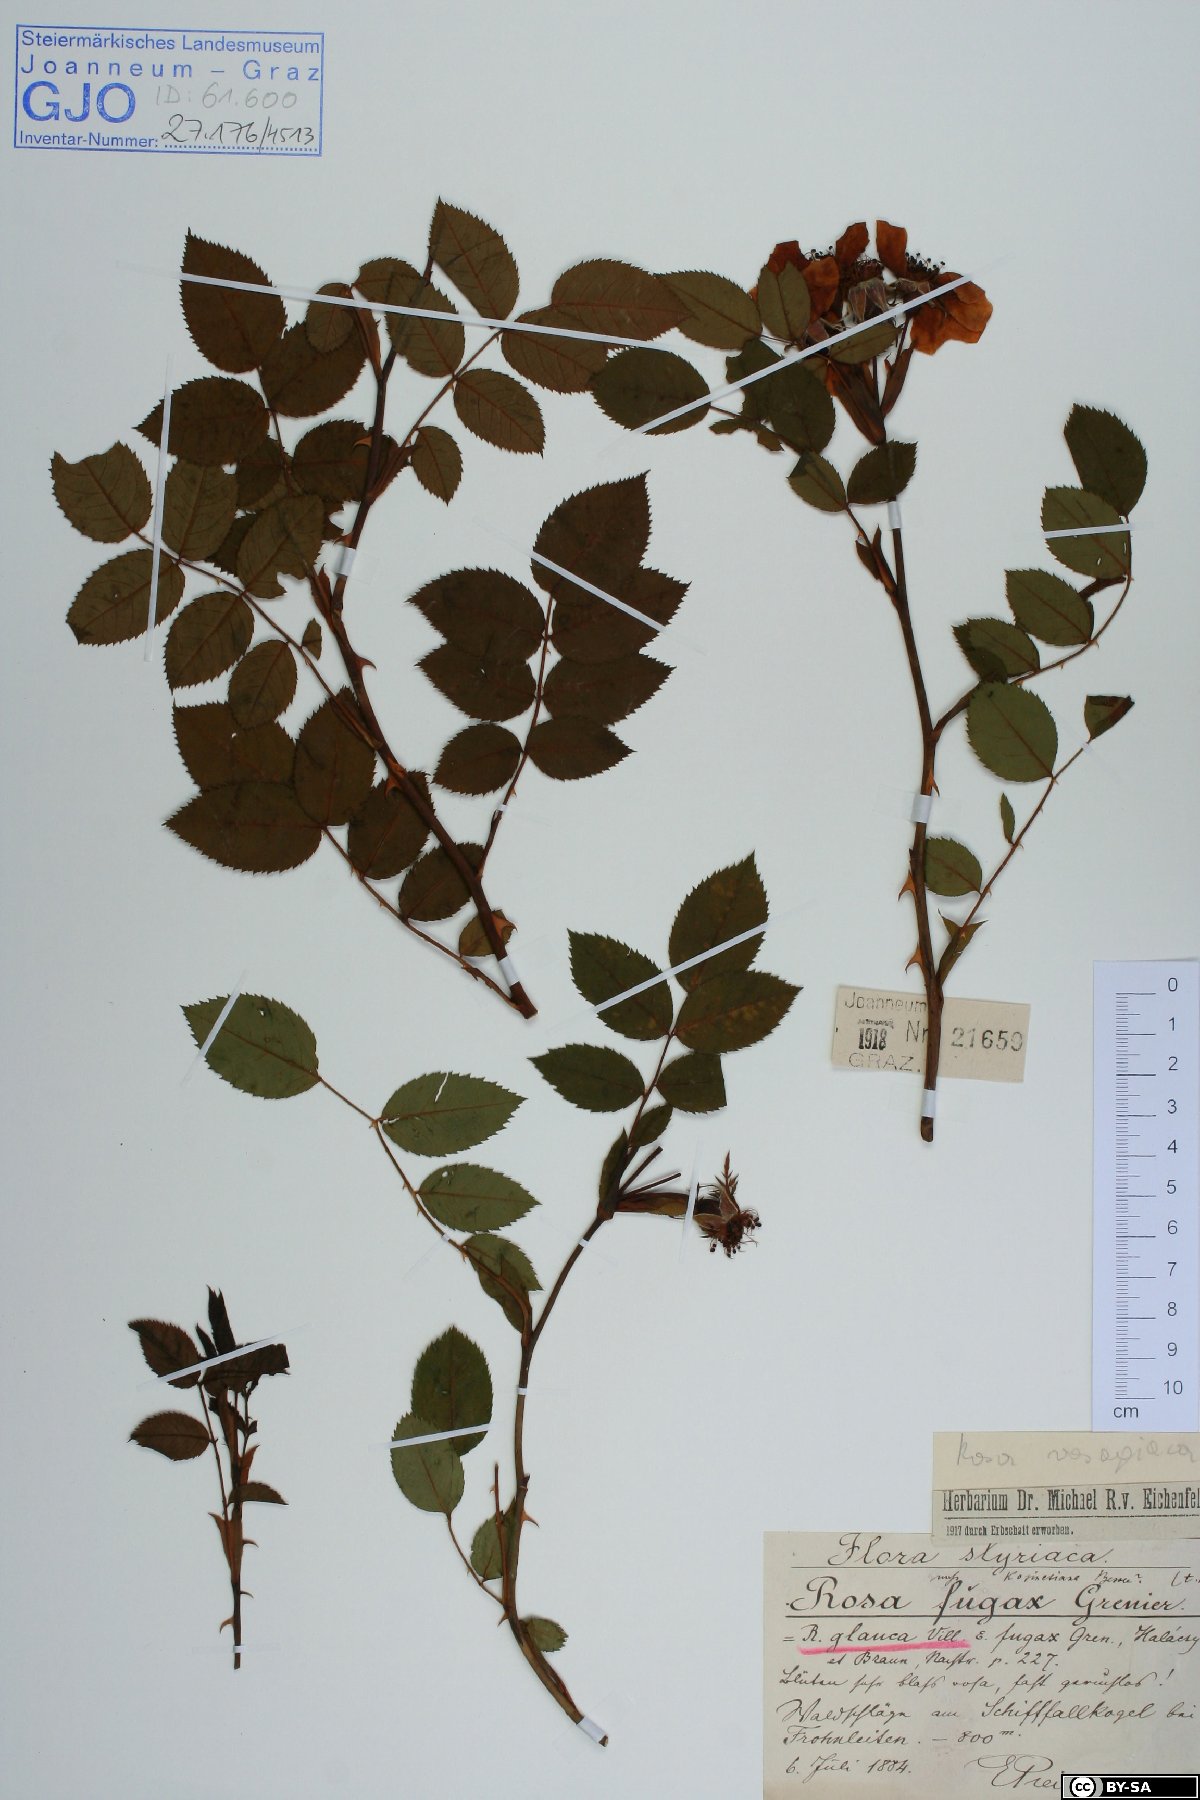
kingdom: Plantae
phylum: Tracheophyta
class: Magnoliopsida
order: Rosales
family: Rosaceae
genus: Rosa
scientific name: Rosa vosagiaca
